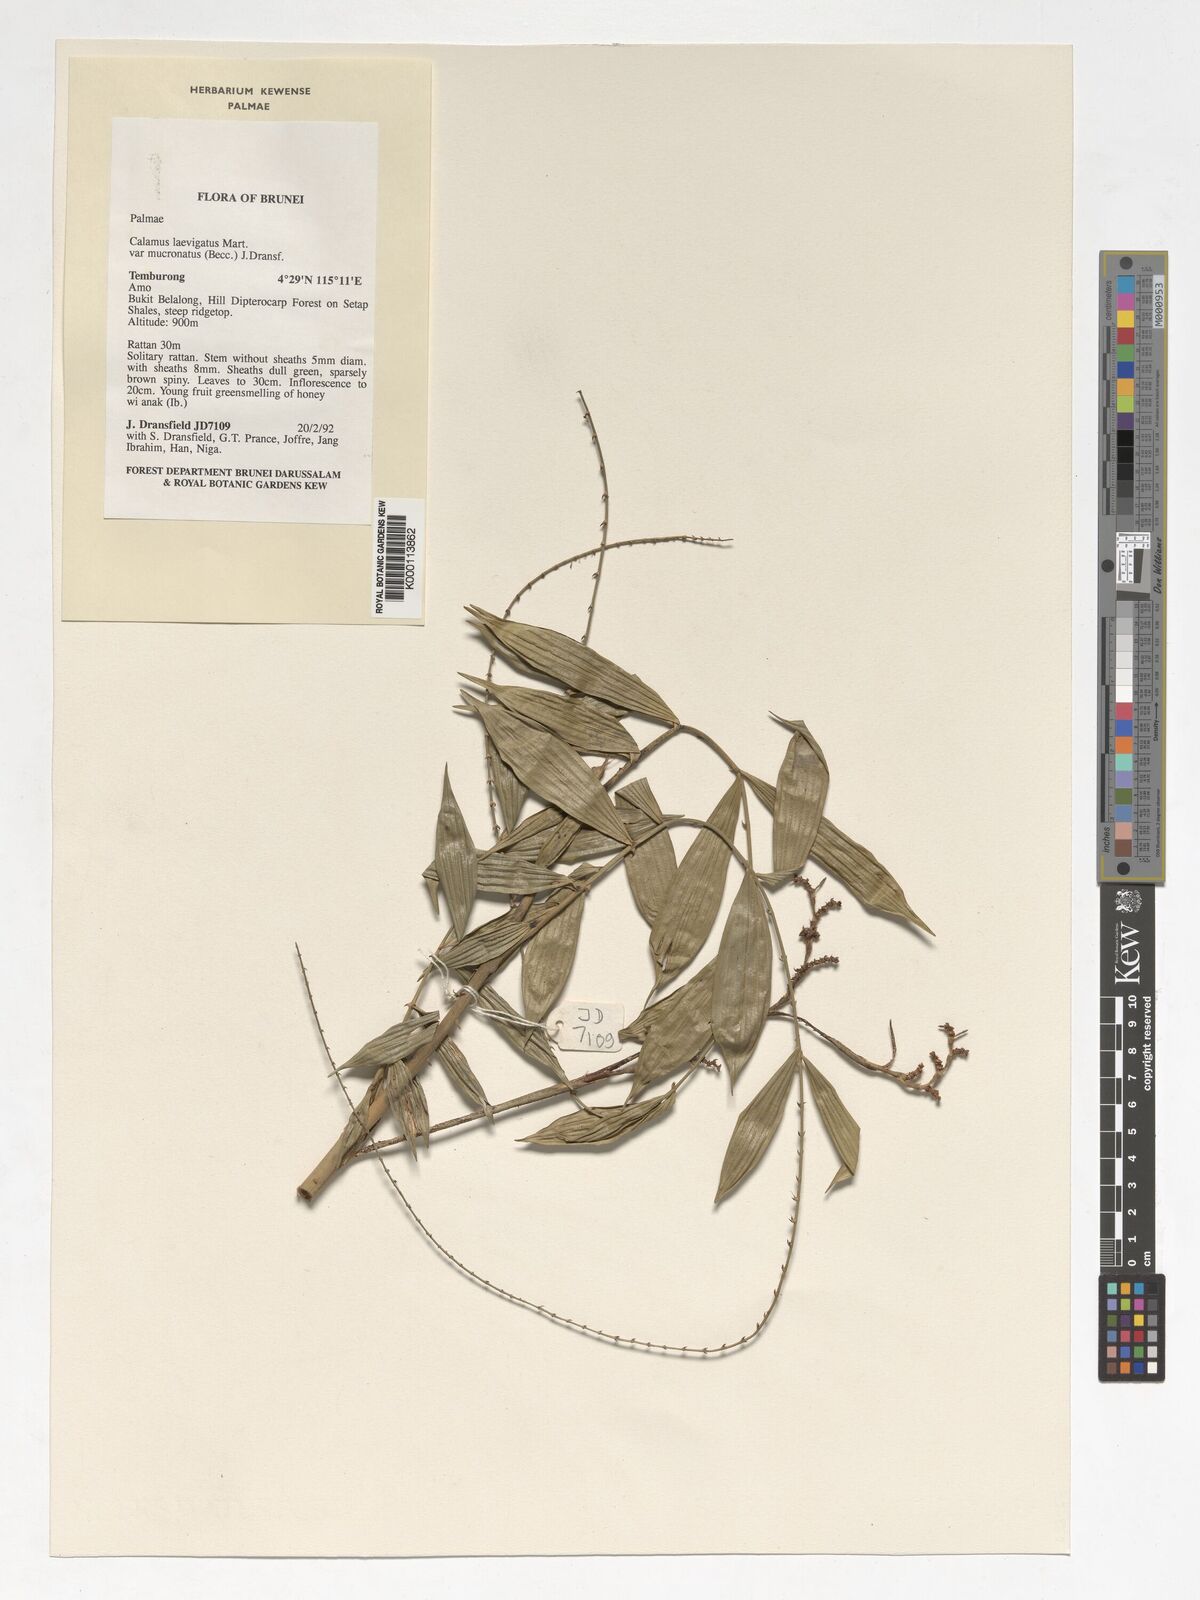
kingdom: Plantae
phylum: Tracheophyta
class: Liliopsida
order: Arecales
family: Arecaceae
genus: Calamus
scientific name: Calamus plicatus
